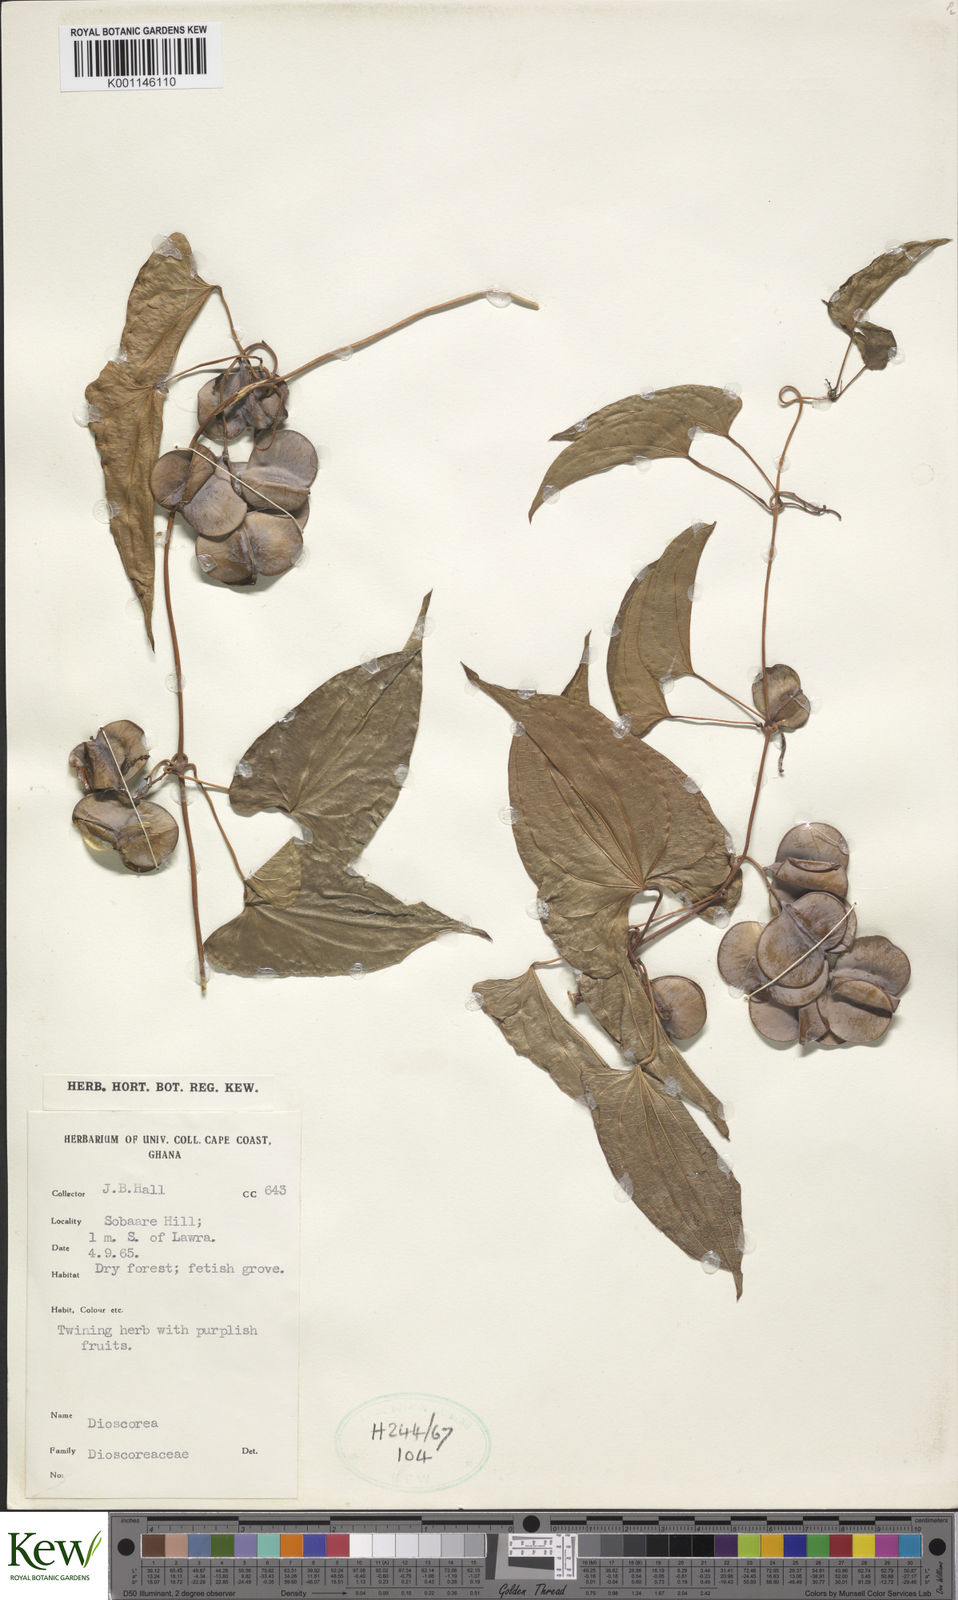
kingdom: Plantae
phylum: Tracheophyta
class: Liliopsida
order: Dioscoreales
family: Dioscoreaceae
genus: Dioscorea
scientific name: Dioscorea
